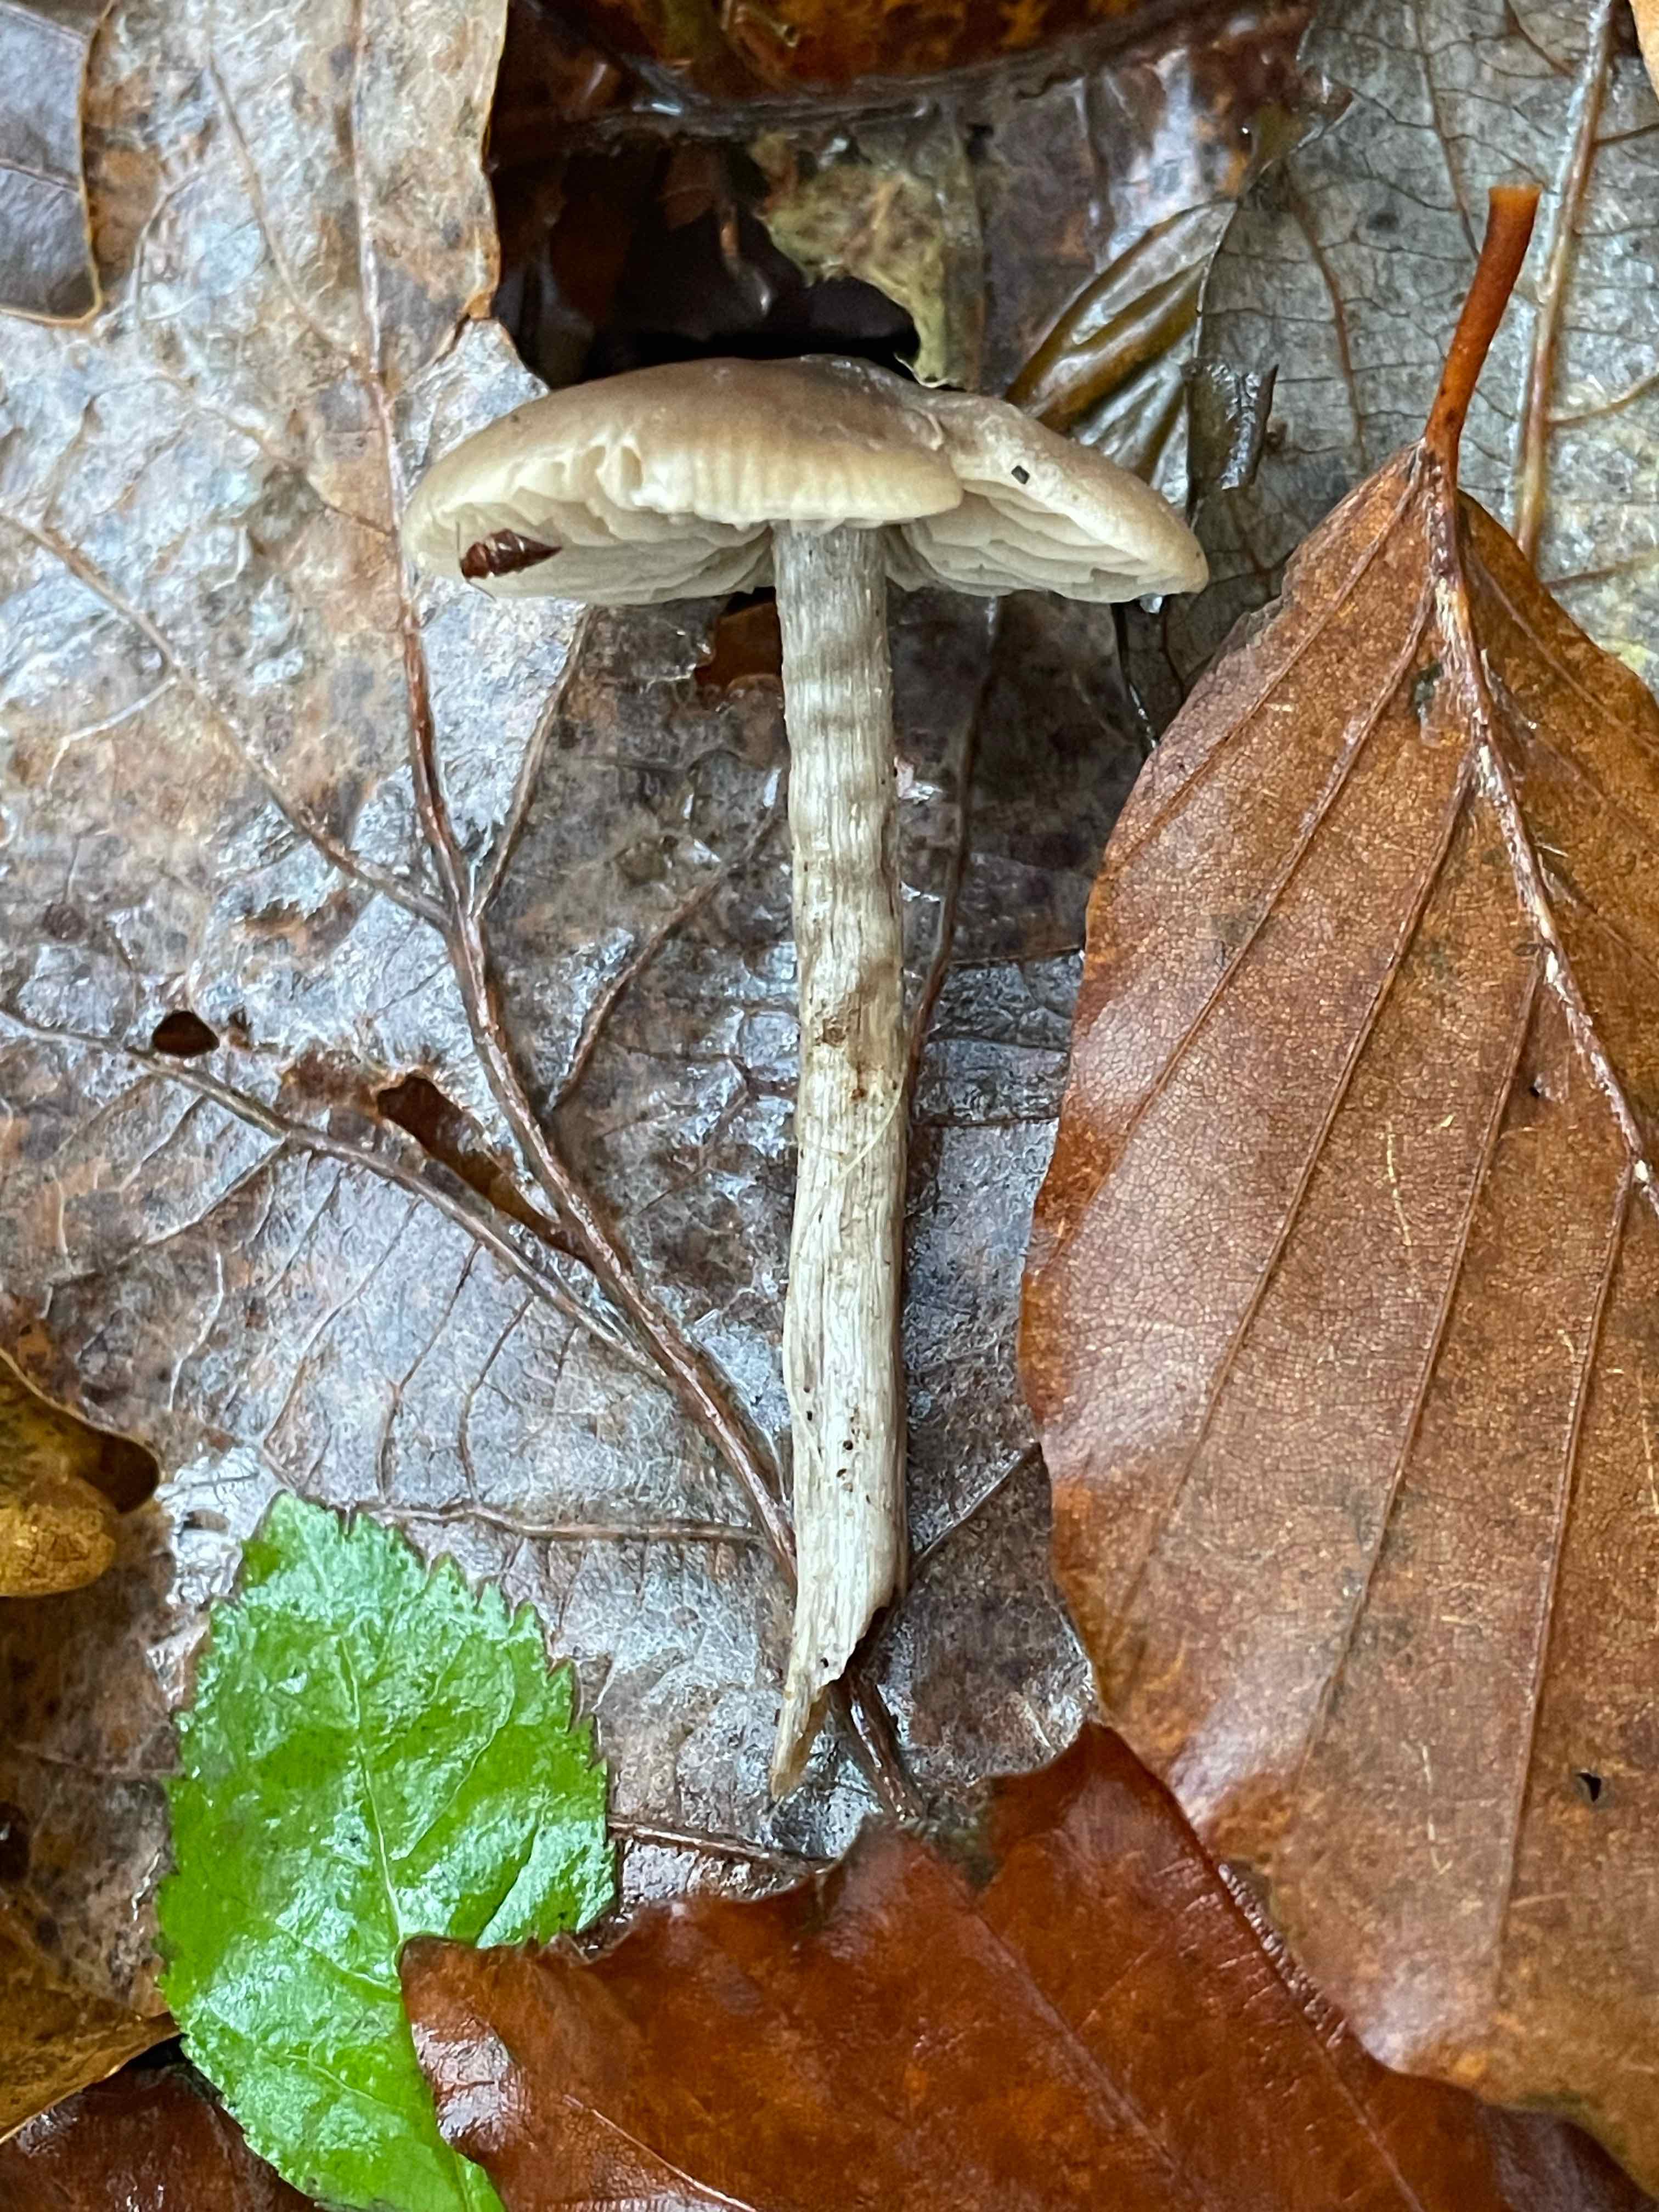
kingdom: Fungi
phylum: Basidiomycota
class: Agaricomycetes
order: Agaricales
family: Lyophyllaceae
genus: Myochromella
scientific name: Myochromella boudieri
